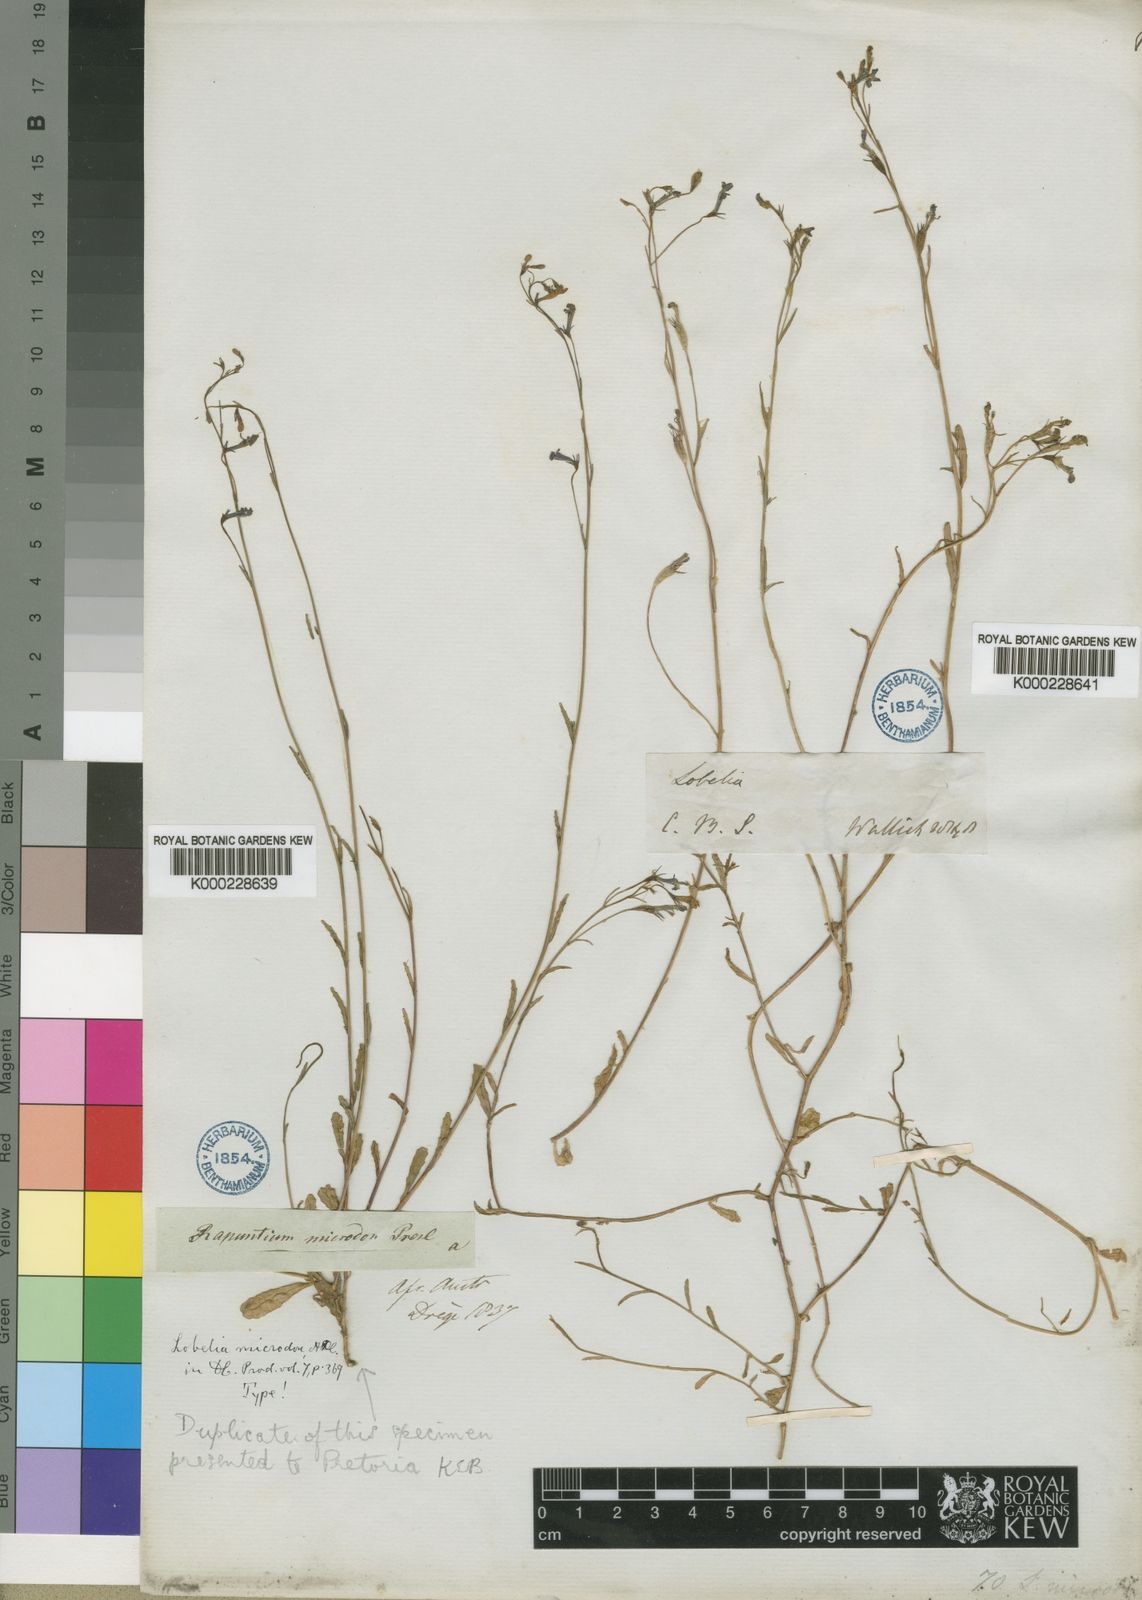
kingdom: Plantae
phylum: Tracheophyta
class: Magnoliopsida
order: Asterales
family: Campanulaceae
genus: Lobelia
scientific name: Lobelia erinus
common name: Edging lobelia
